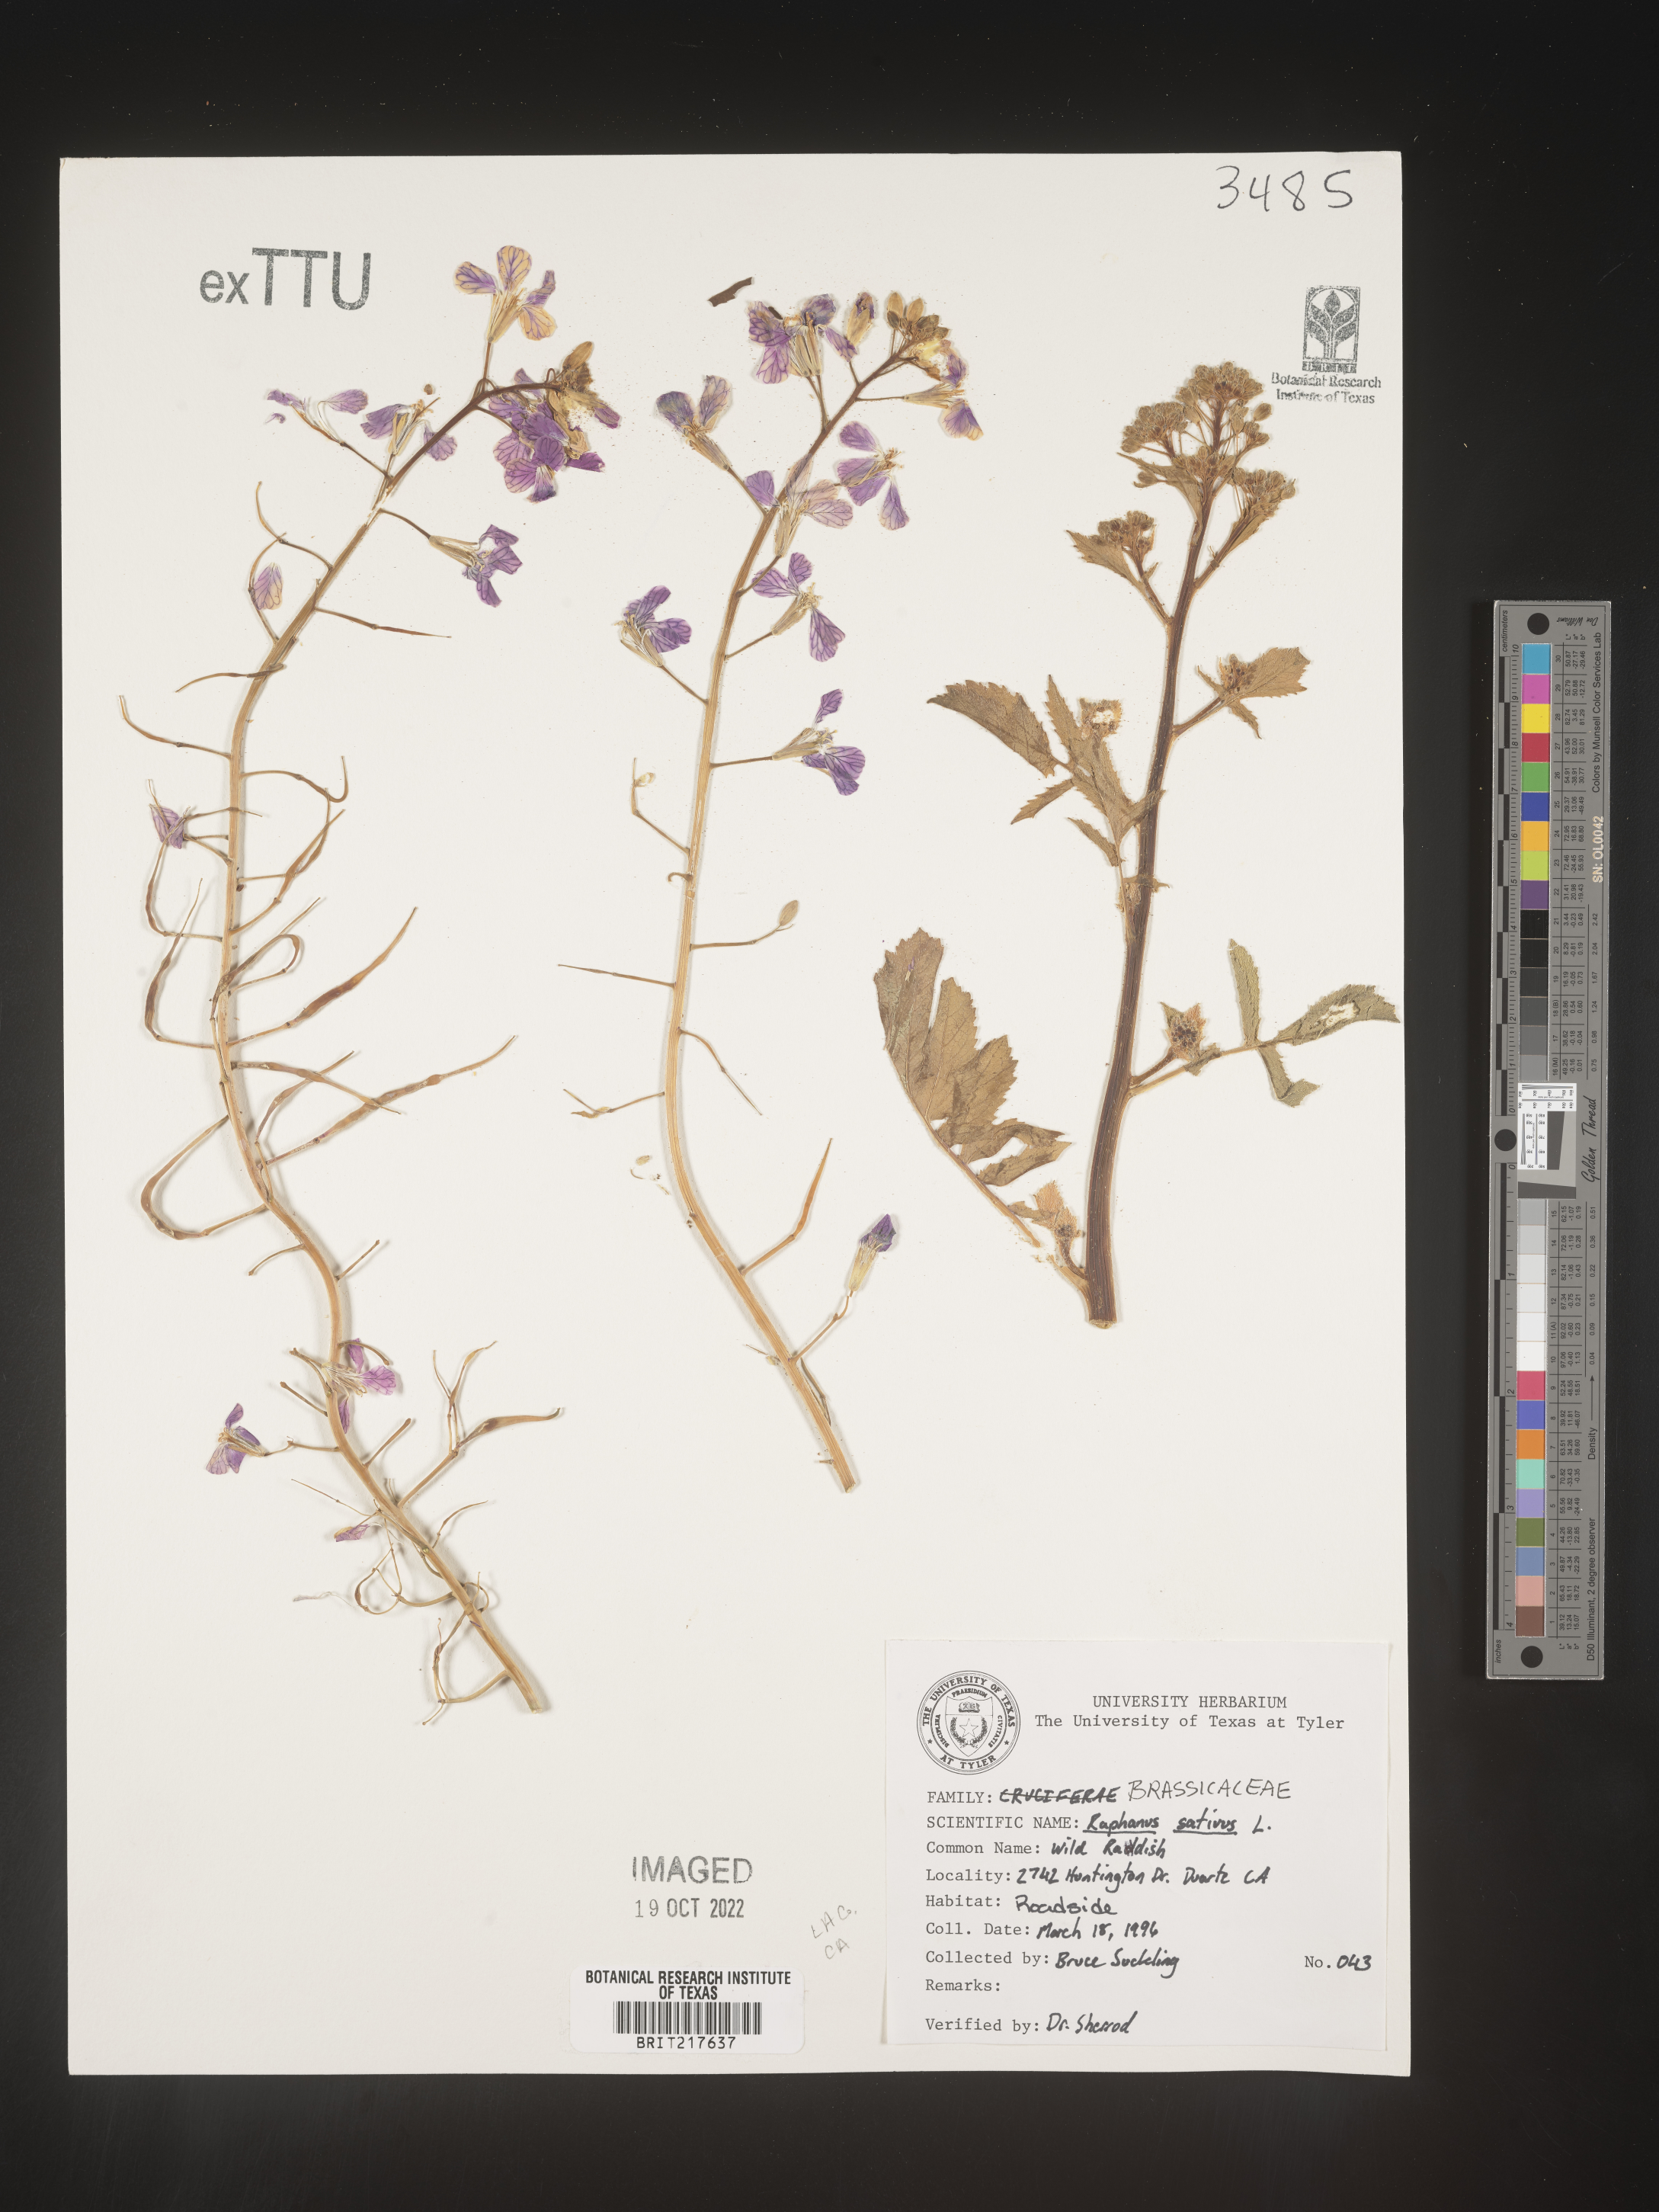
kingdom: Plantae
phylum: Tracheophyta
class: Magnoliopsida
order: Brassicales
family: Brassicaceae
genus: Raphanus
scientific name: Raphanus sativus
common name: Cultivated radish
